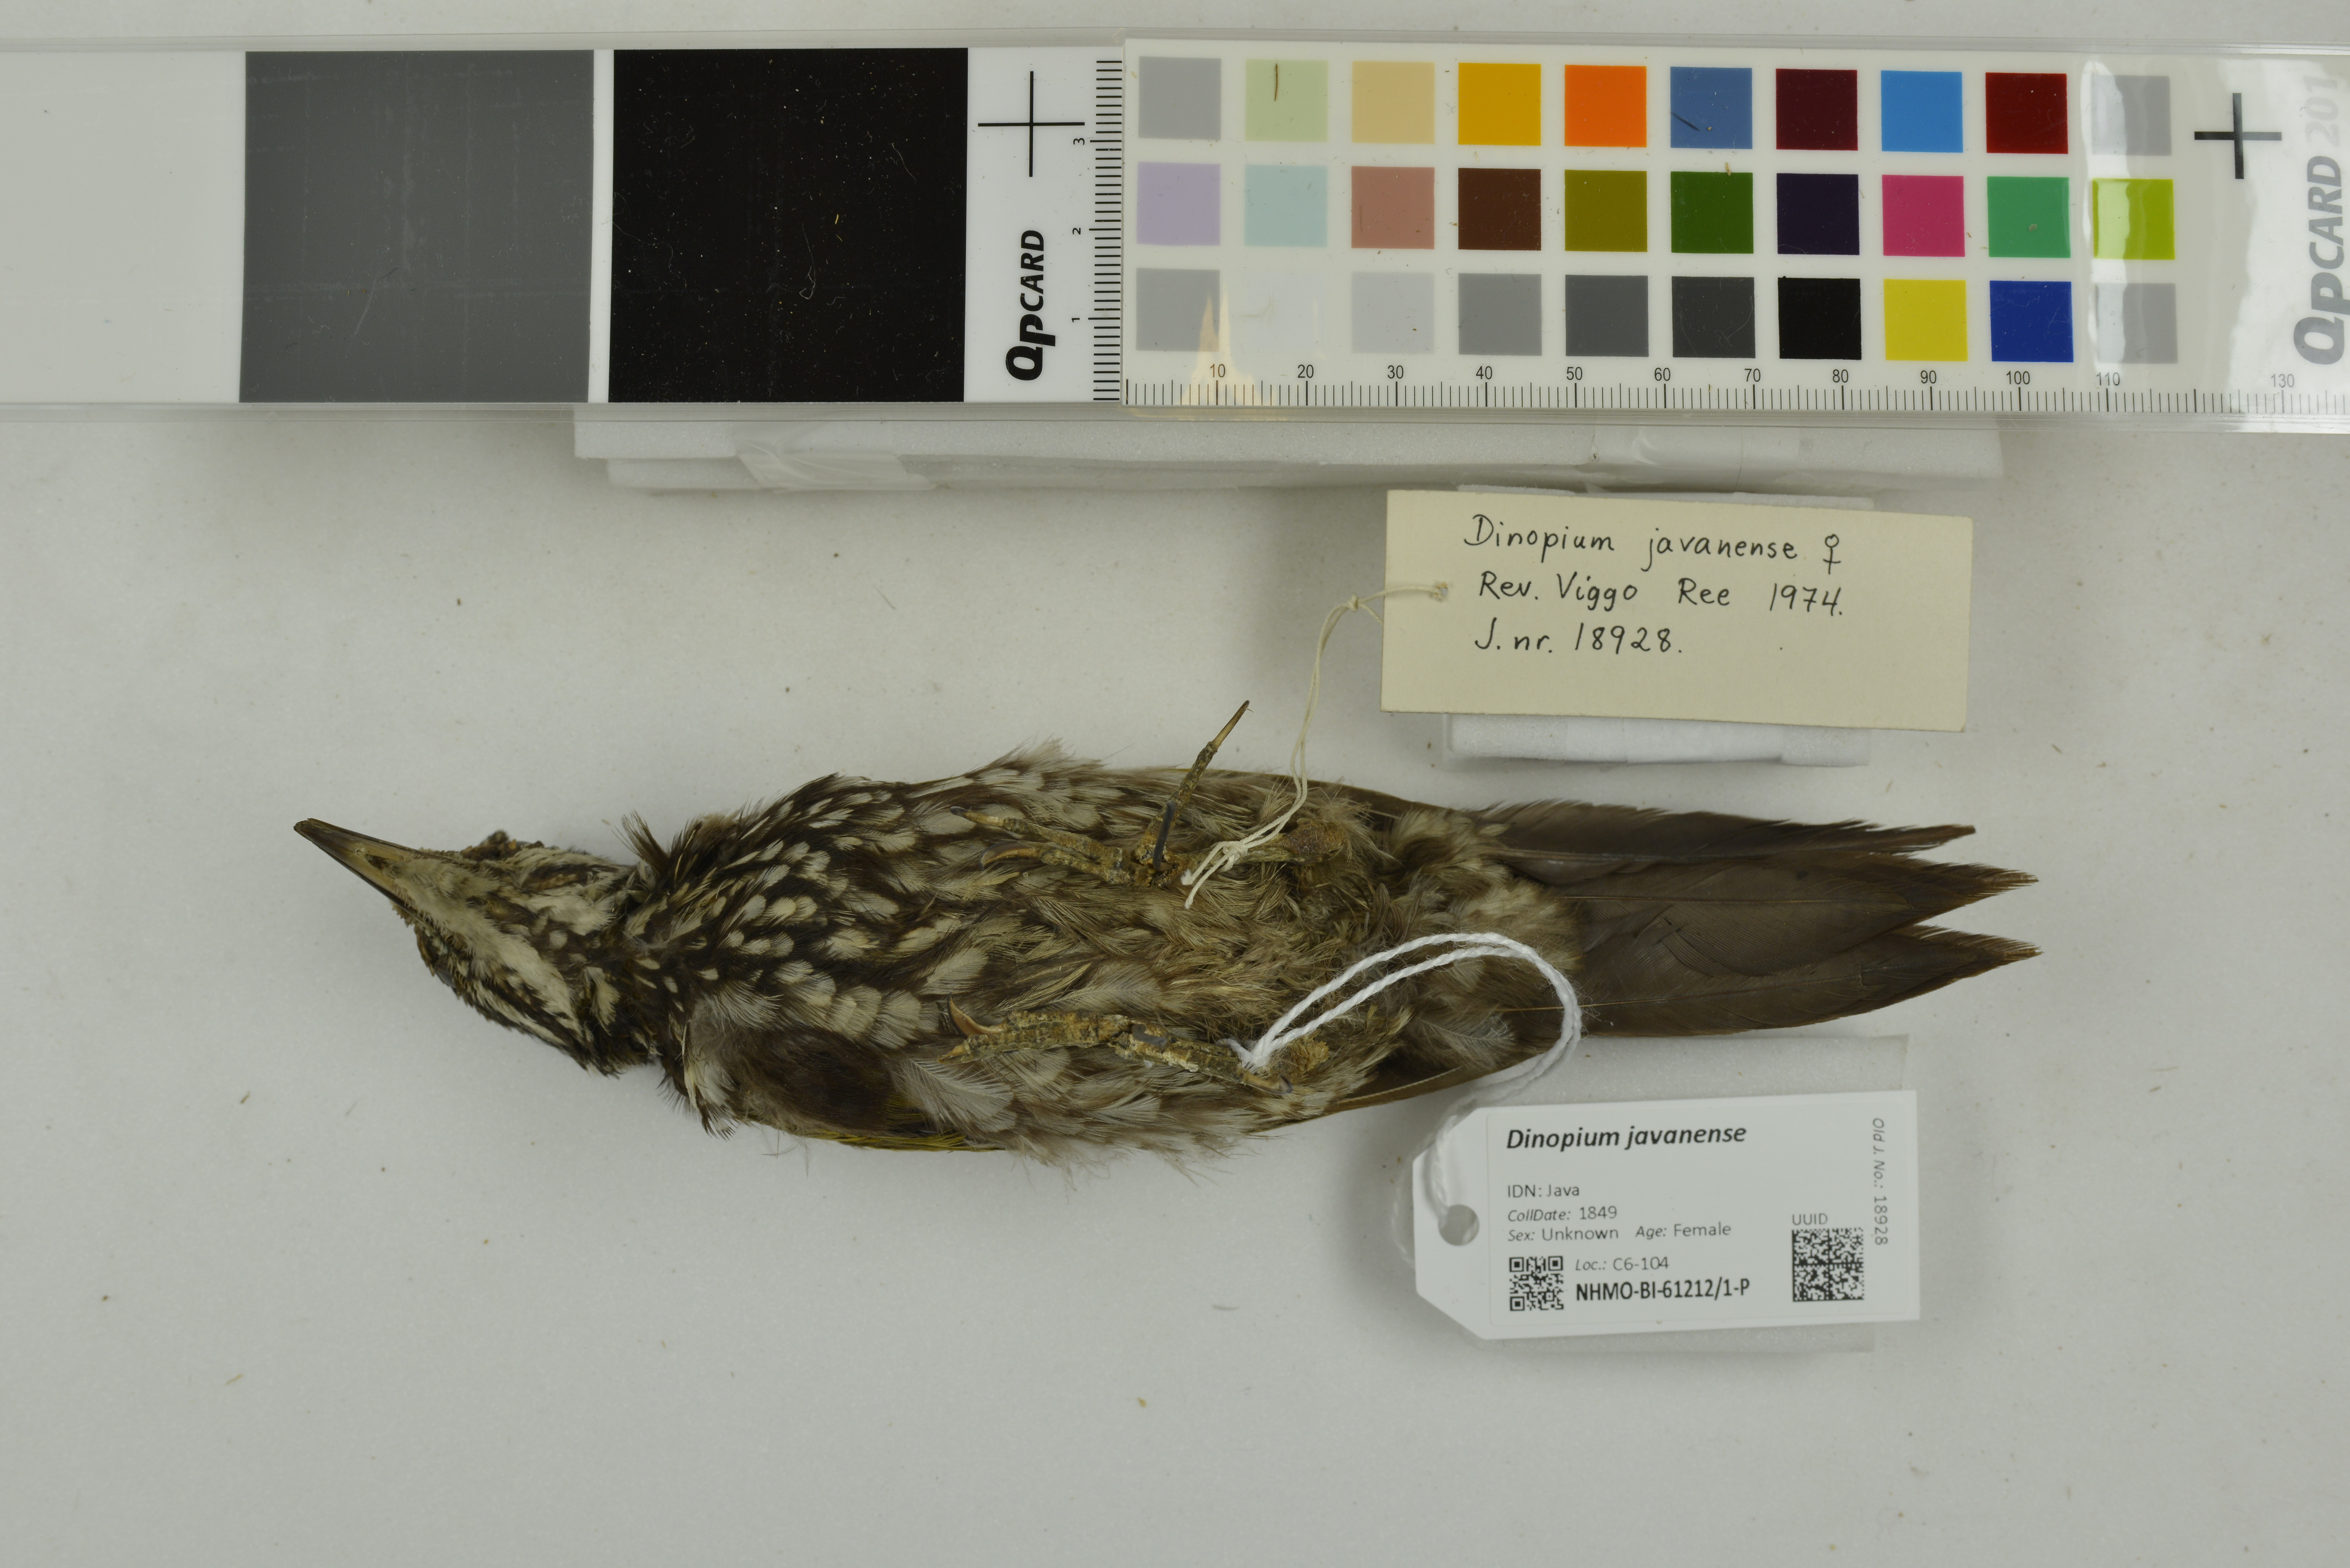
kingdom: Animalia
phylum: Chordata
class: Aves
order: Piciformes
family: Picidae
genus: Dinopium
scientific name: Dinopium javanense
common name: Common flameback
